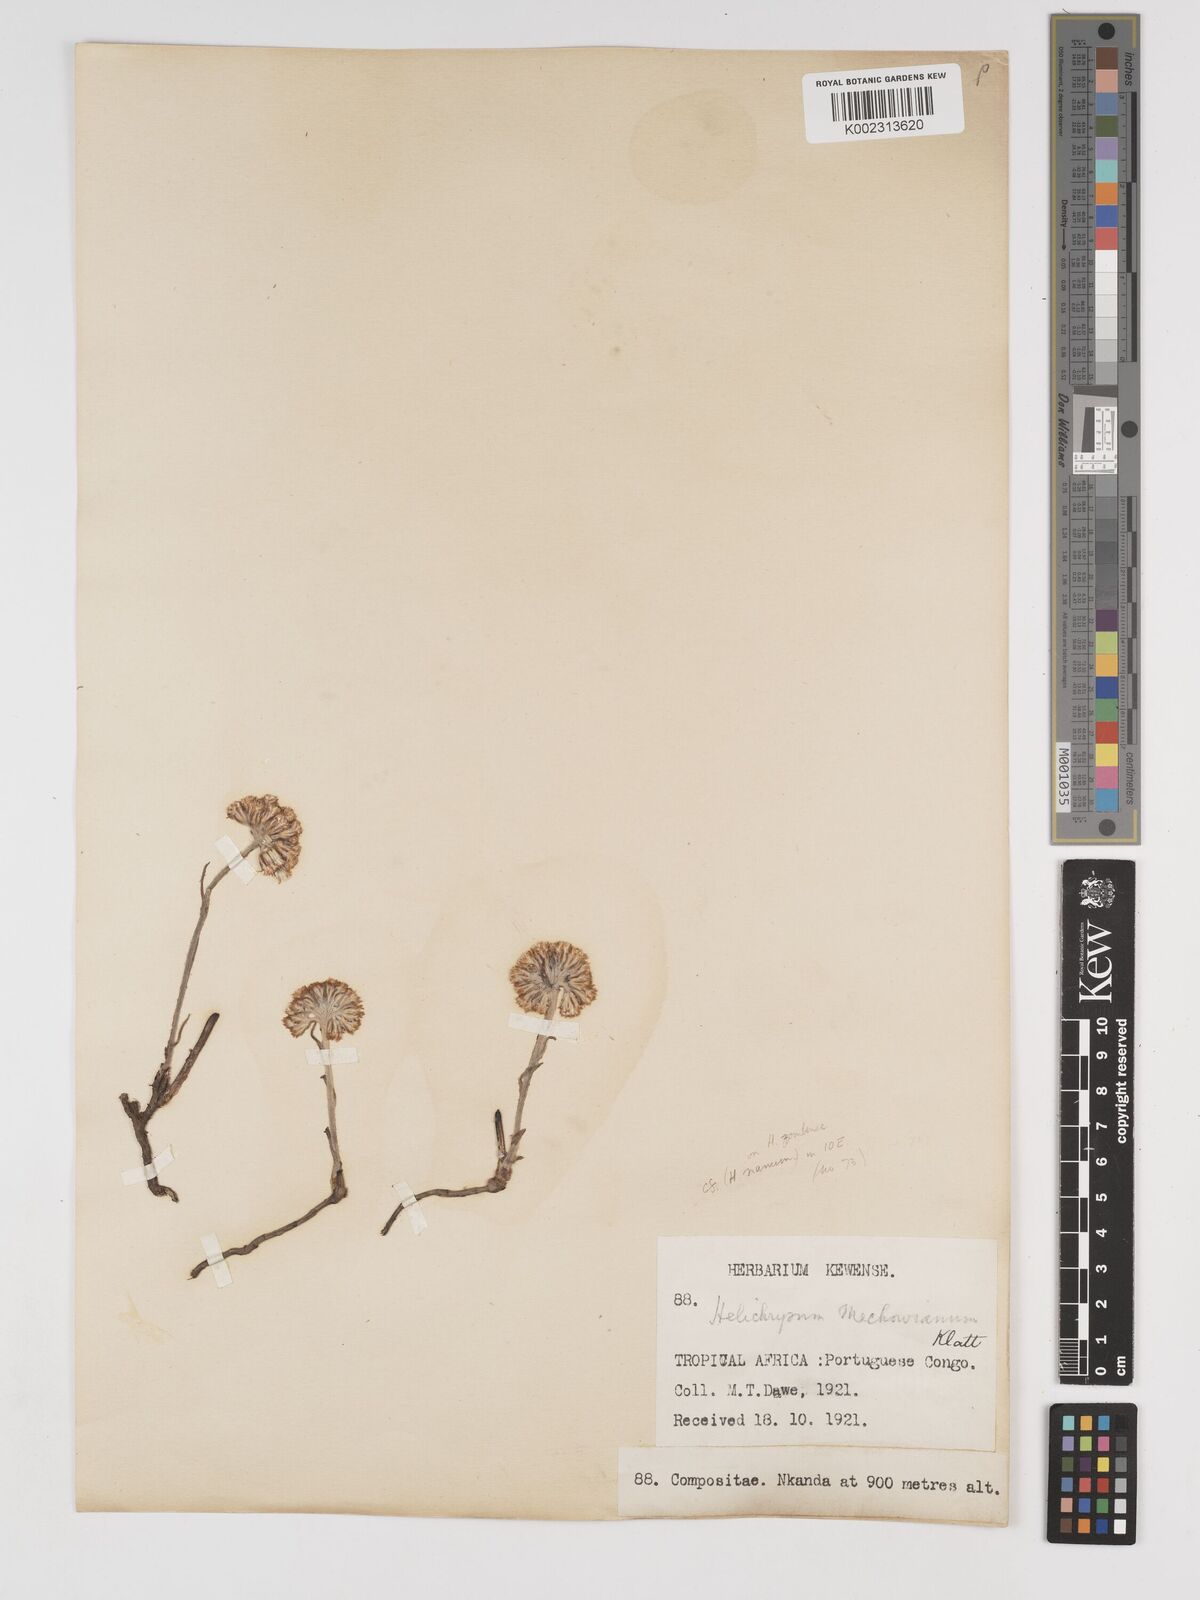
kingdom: Plantae
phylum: Tracheophyta
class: Magnoliopsida
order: Asterales
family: Asteraceae
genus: Helichrysum
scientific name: Helichrysum mechowianum
